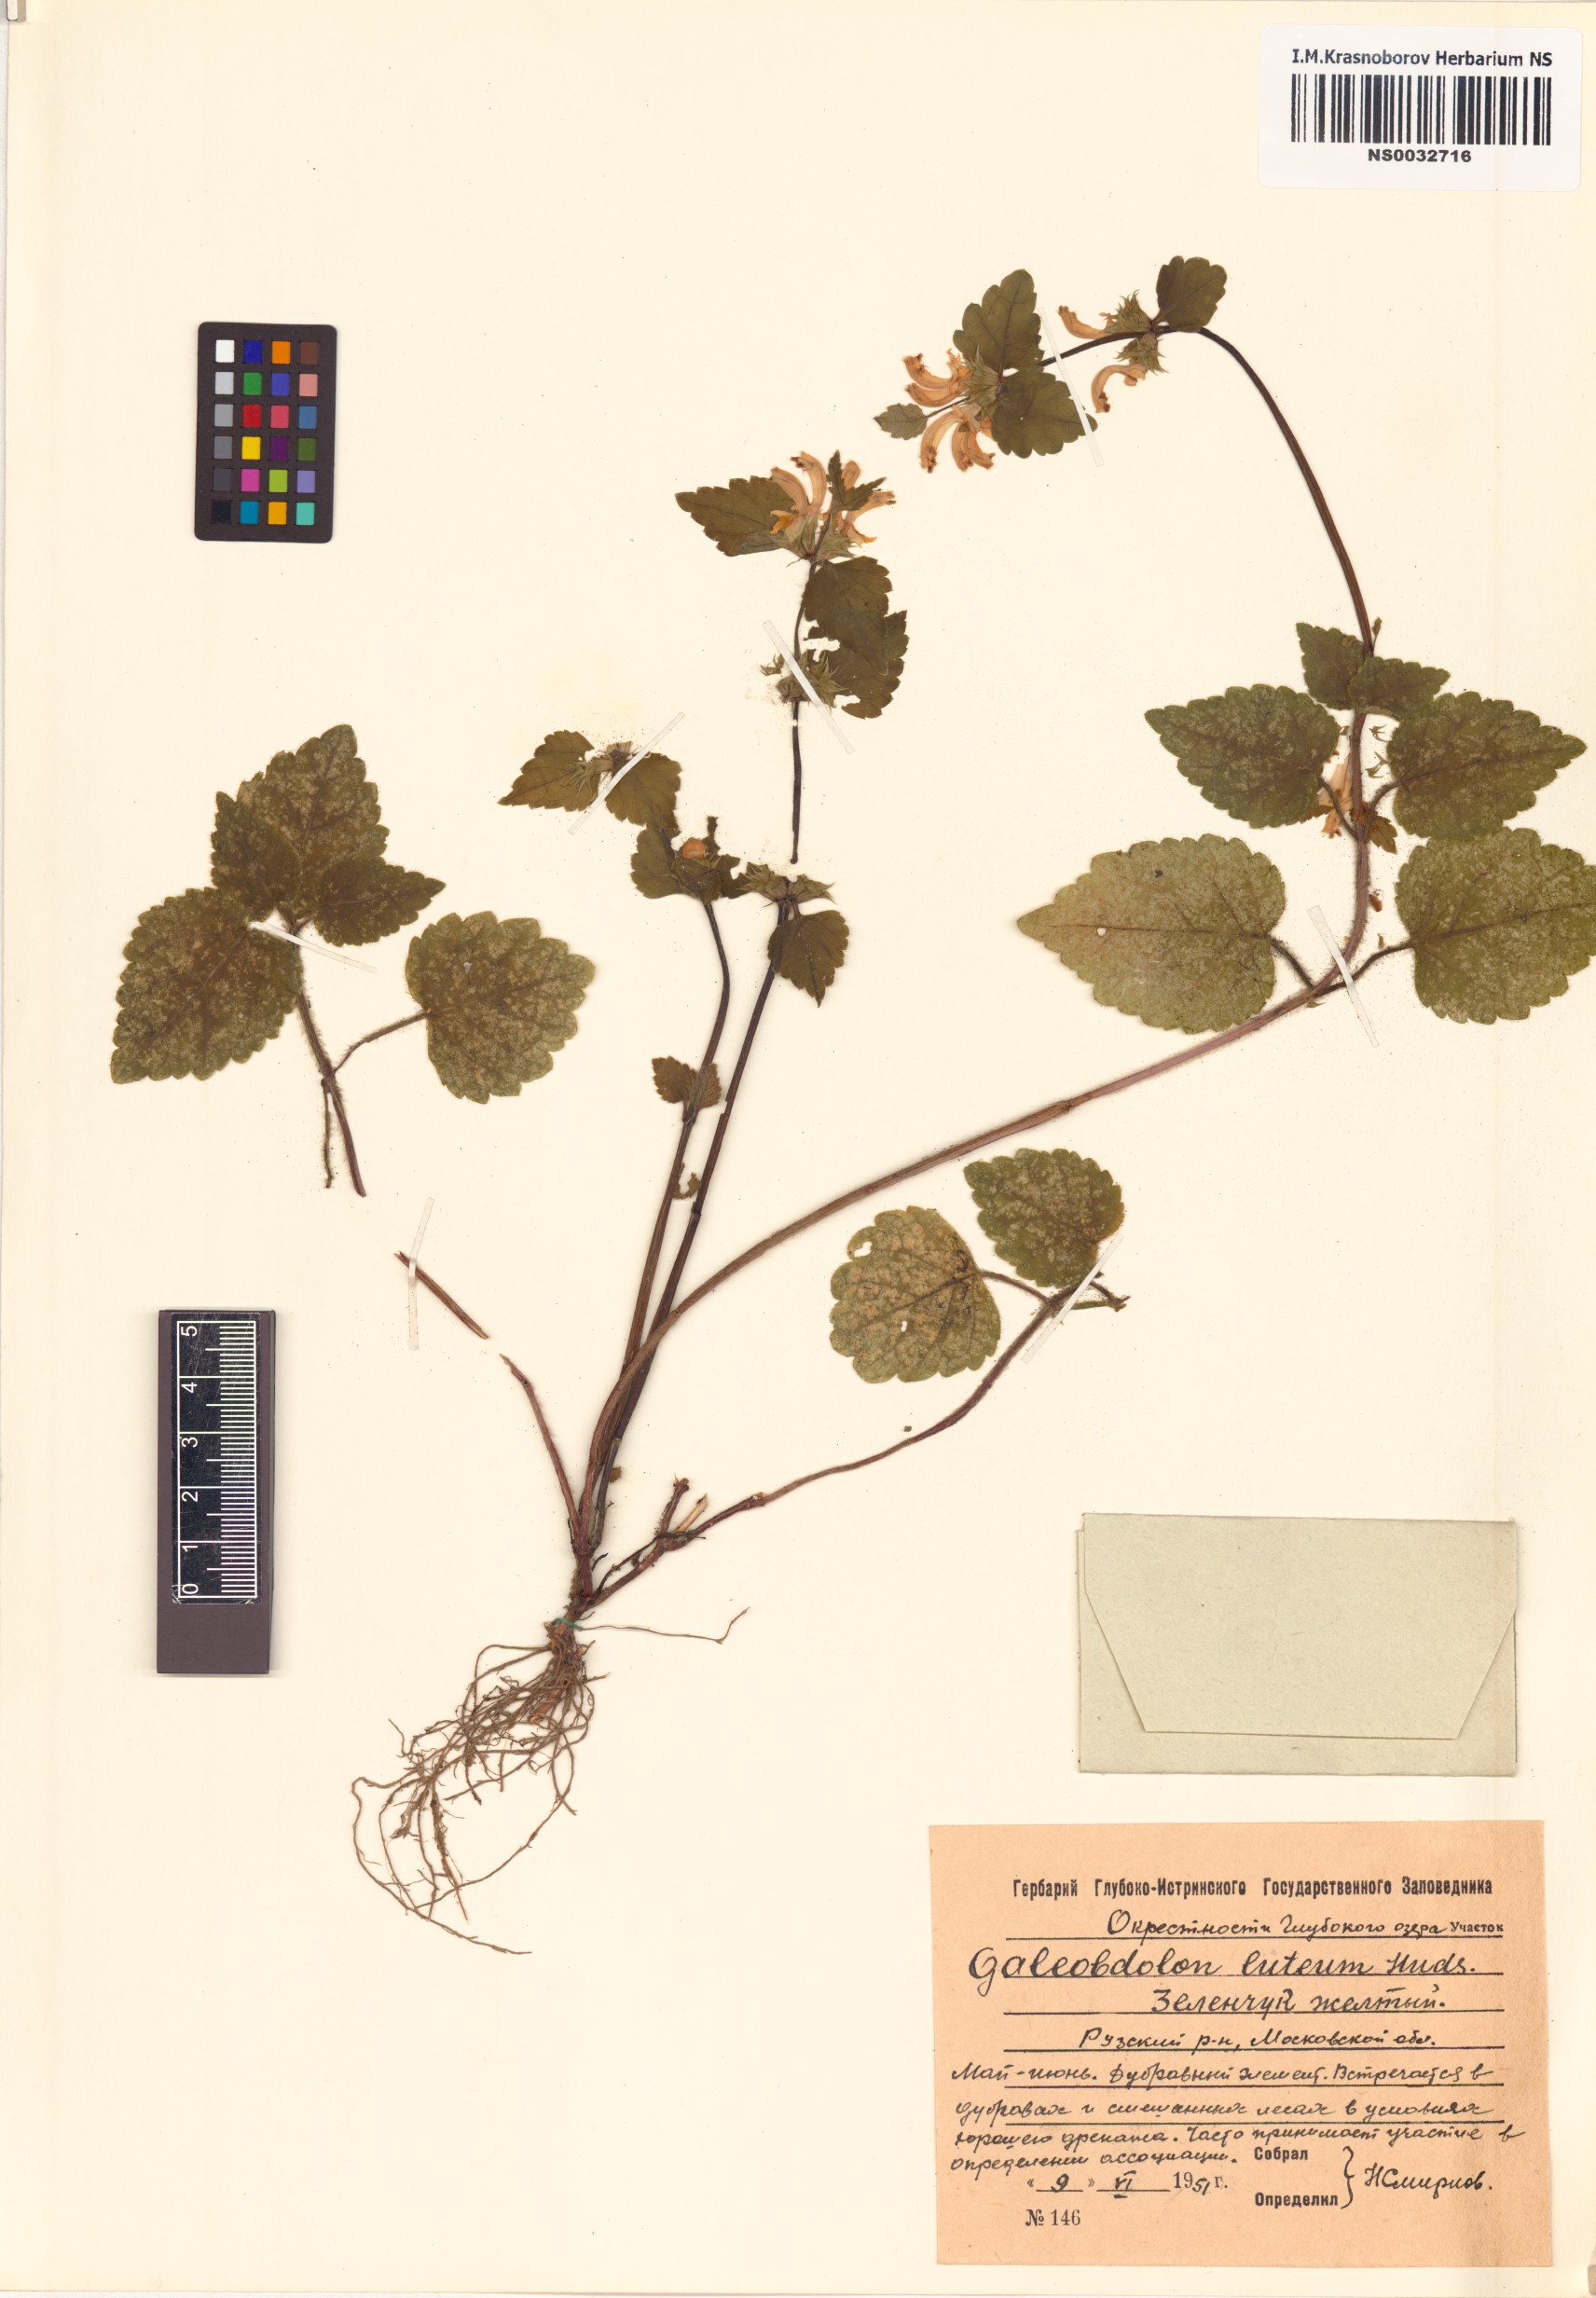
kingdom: Plantae
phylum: Tracheophyta
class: Magnoliopsida
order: Lamiales
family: Lamiaceae
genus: Lamium
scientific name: Lamium galeobdolon
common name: Yellow archangel
